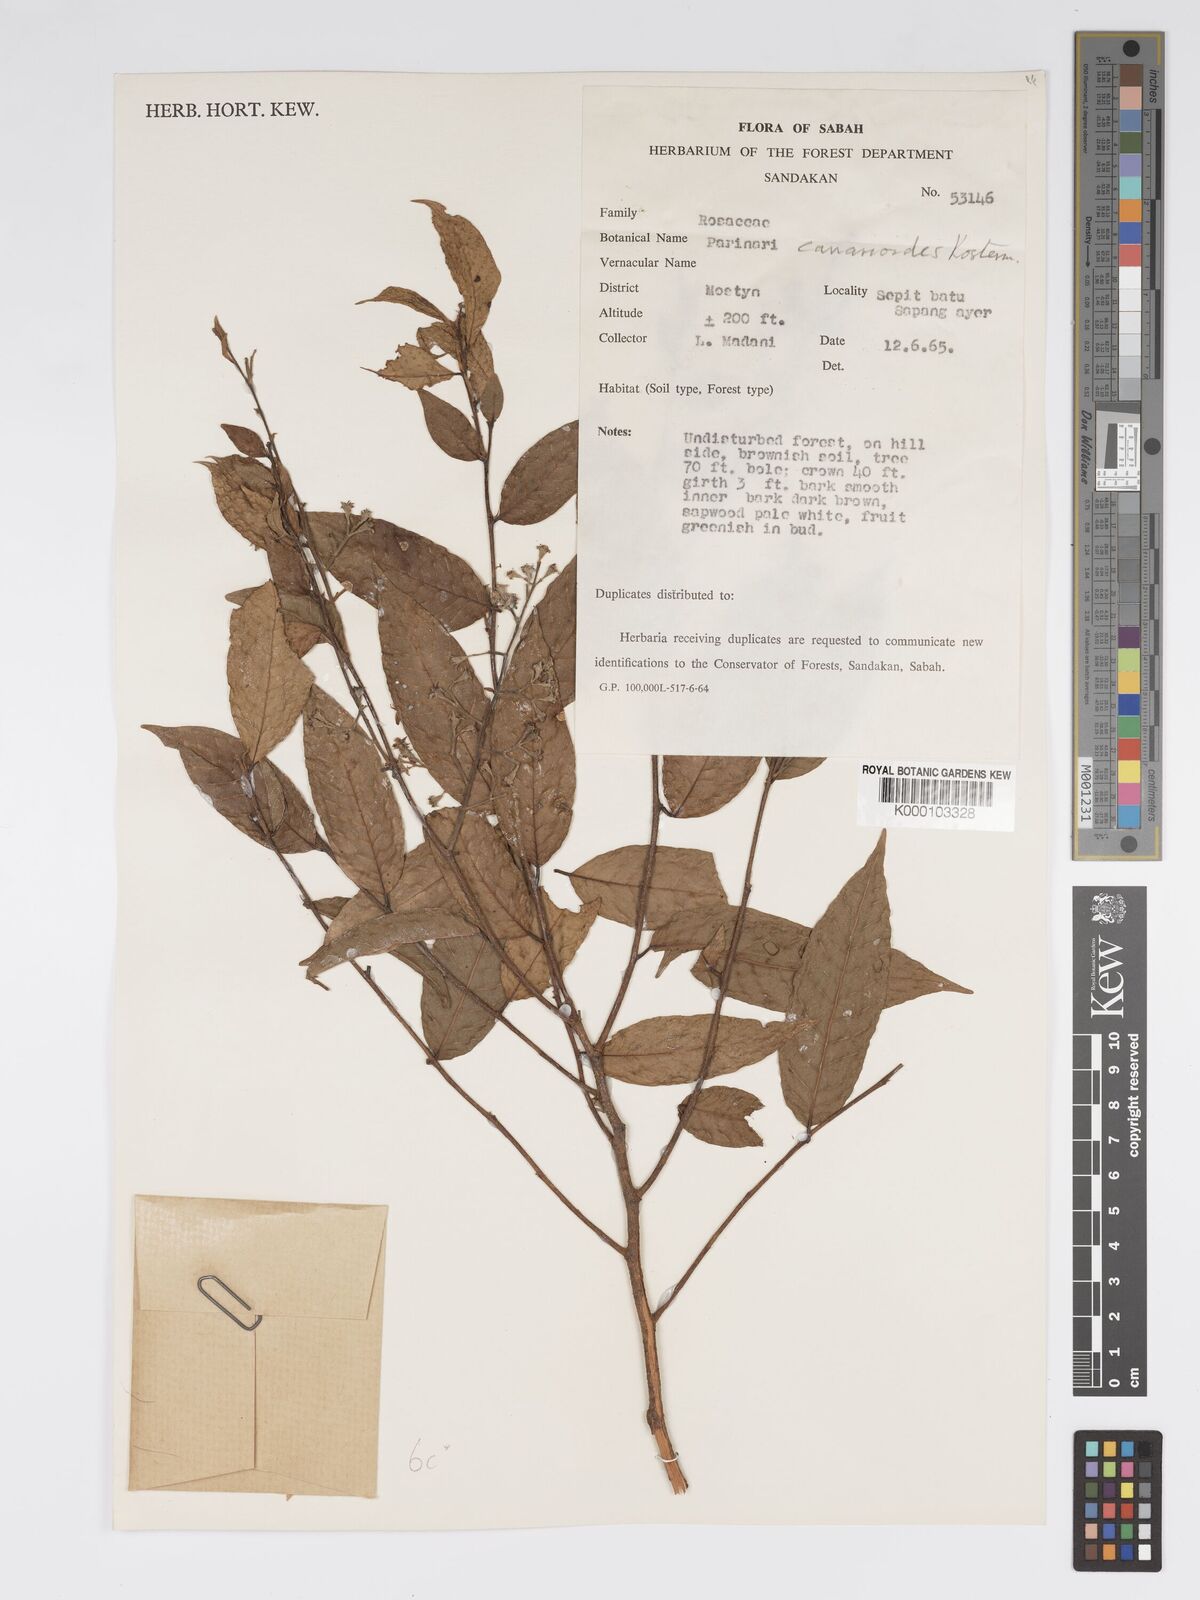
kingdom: Plantae
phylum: Tracheophyta
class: Magnoliopsida
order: Malpighiales
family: Chrysobalanaceae
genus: Parinari
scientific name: Parinari canarioides
